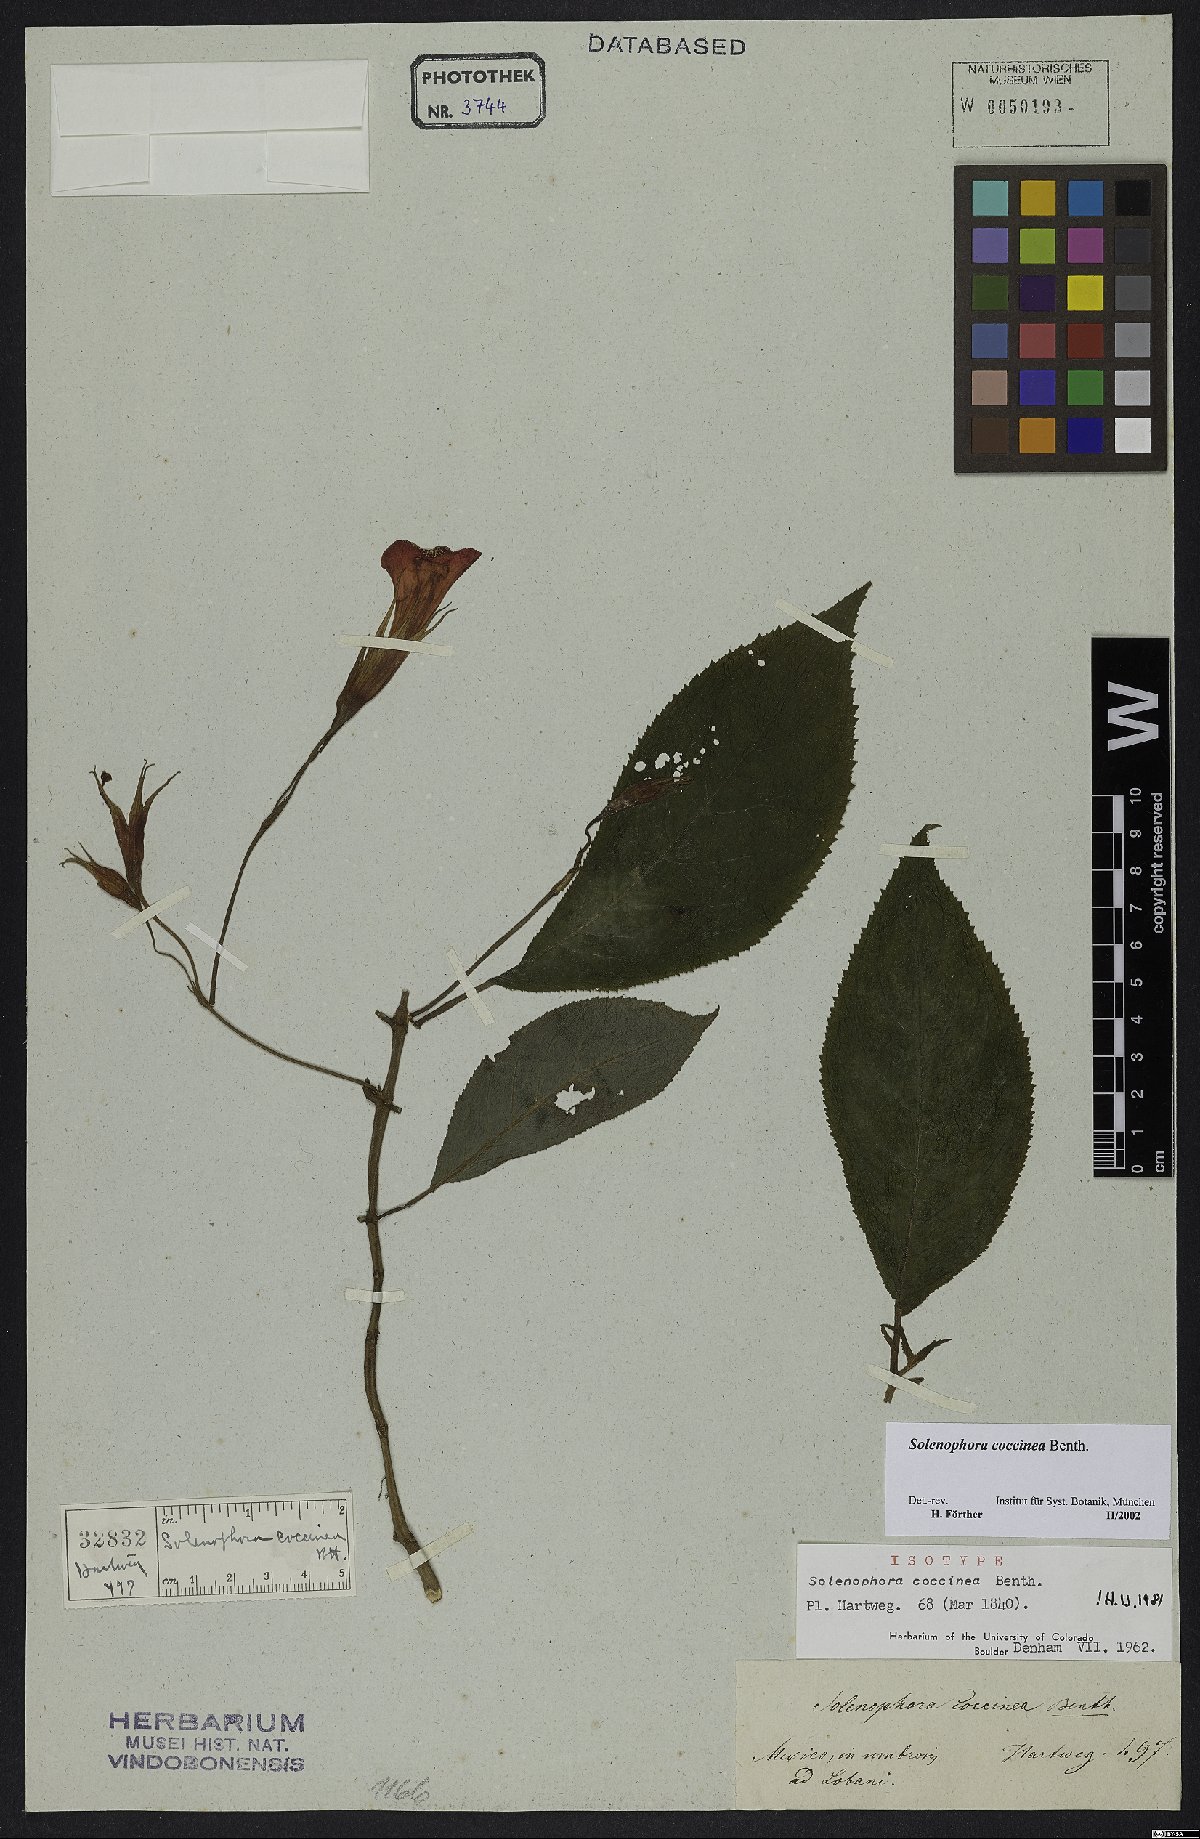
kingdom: Plantae
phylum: Tracheophyta
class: Magnoliopsida
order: Lamiales
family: Gesneriaceae
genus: Solenophora
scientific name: Solenophora coccinea
